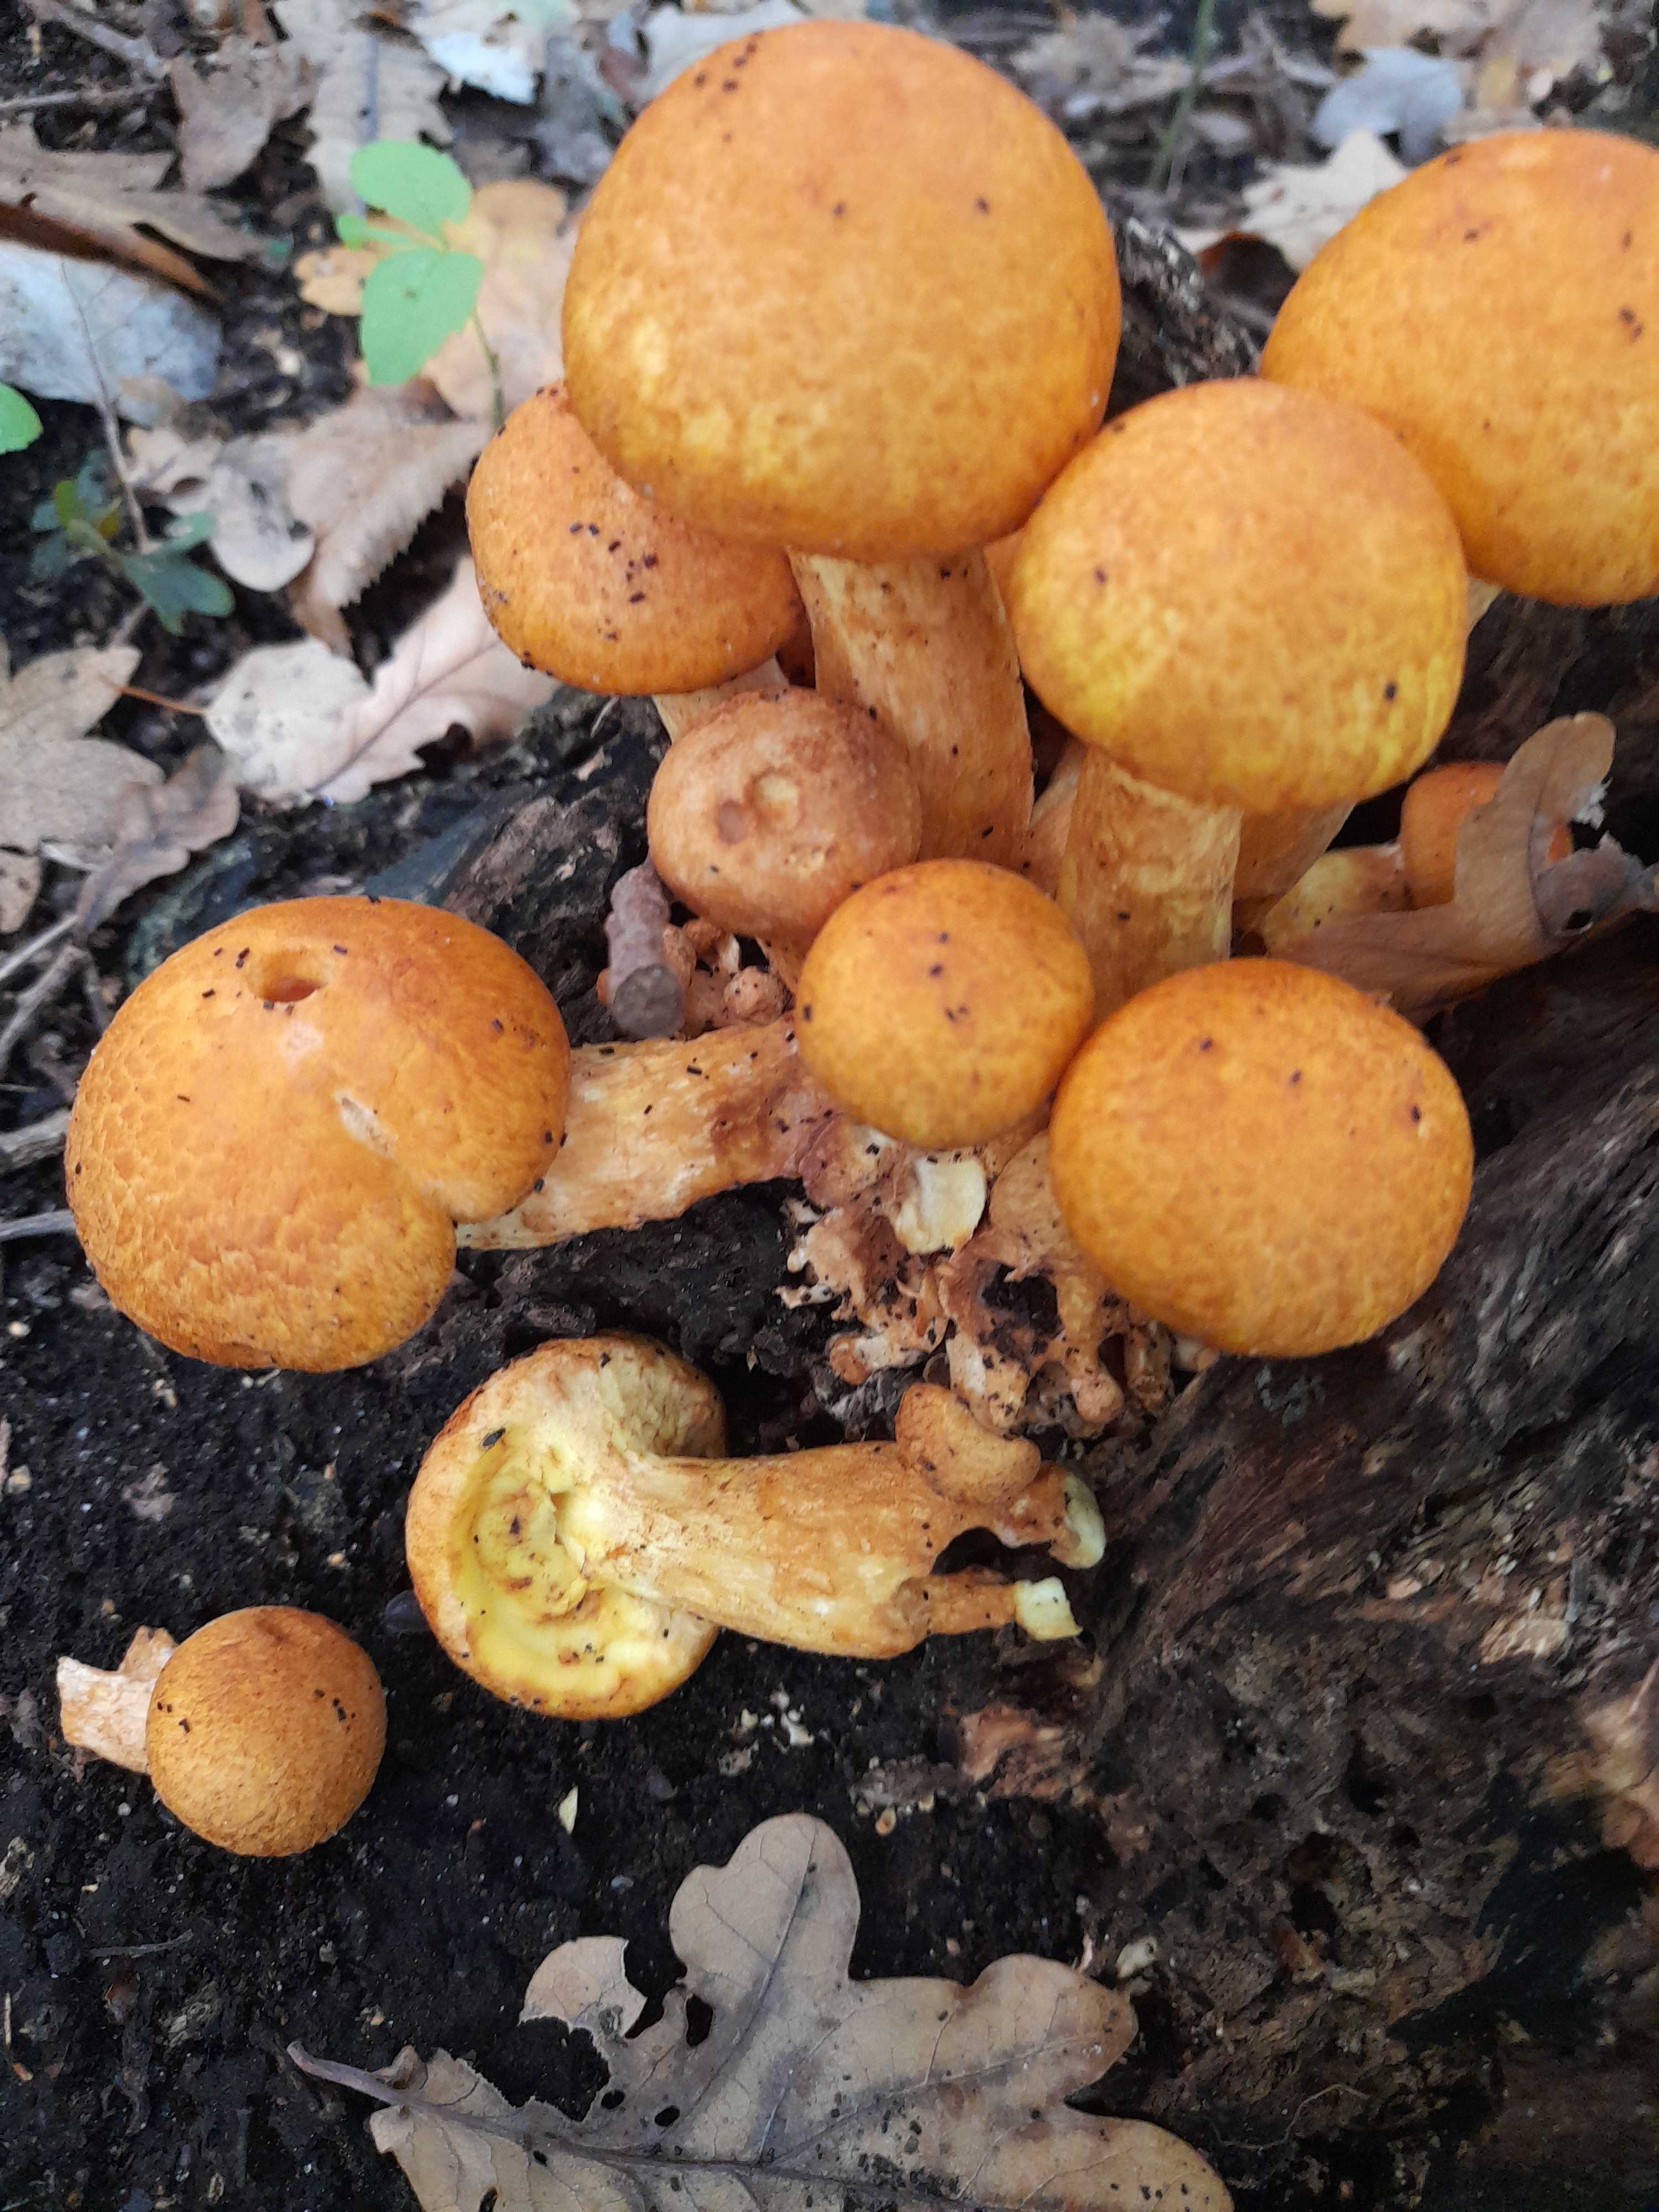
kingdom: Fungi
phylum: Basidiomycota
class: Agaricomycetes
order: Agaricales
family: Hymenogastraceae
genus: Gymnopilus
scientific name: Gymnopilus spectabilis
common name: fibret flammehat
